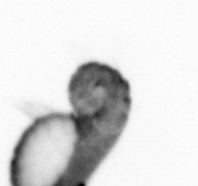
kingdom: Animalia
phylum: Annelida
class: Polychaeta
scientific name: Polychaeta
